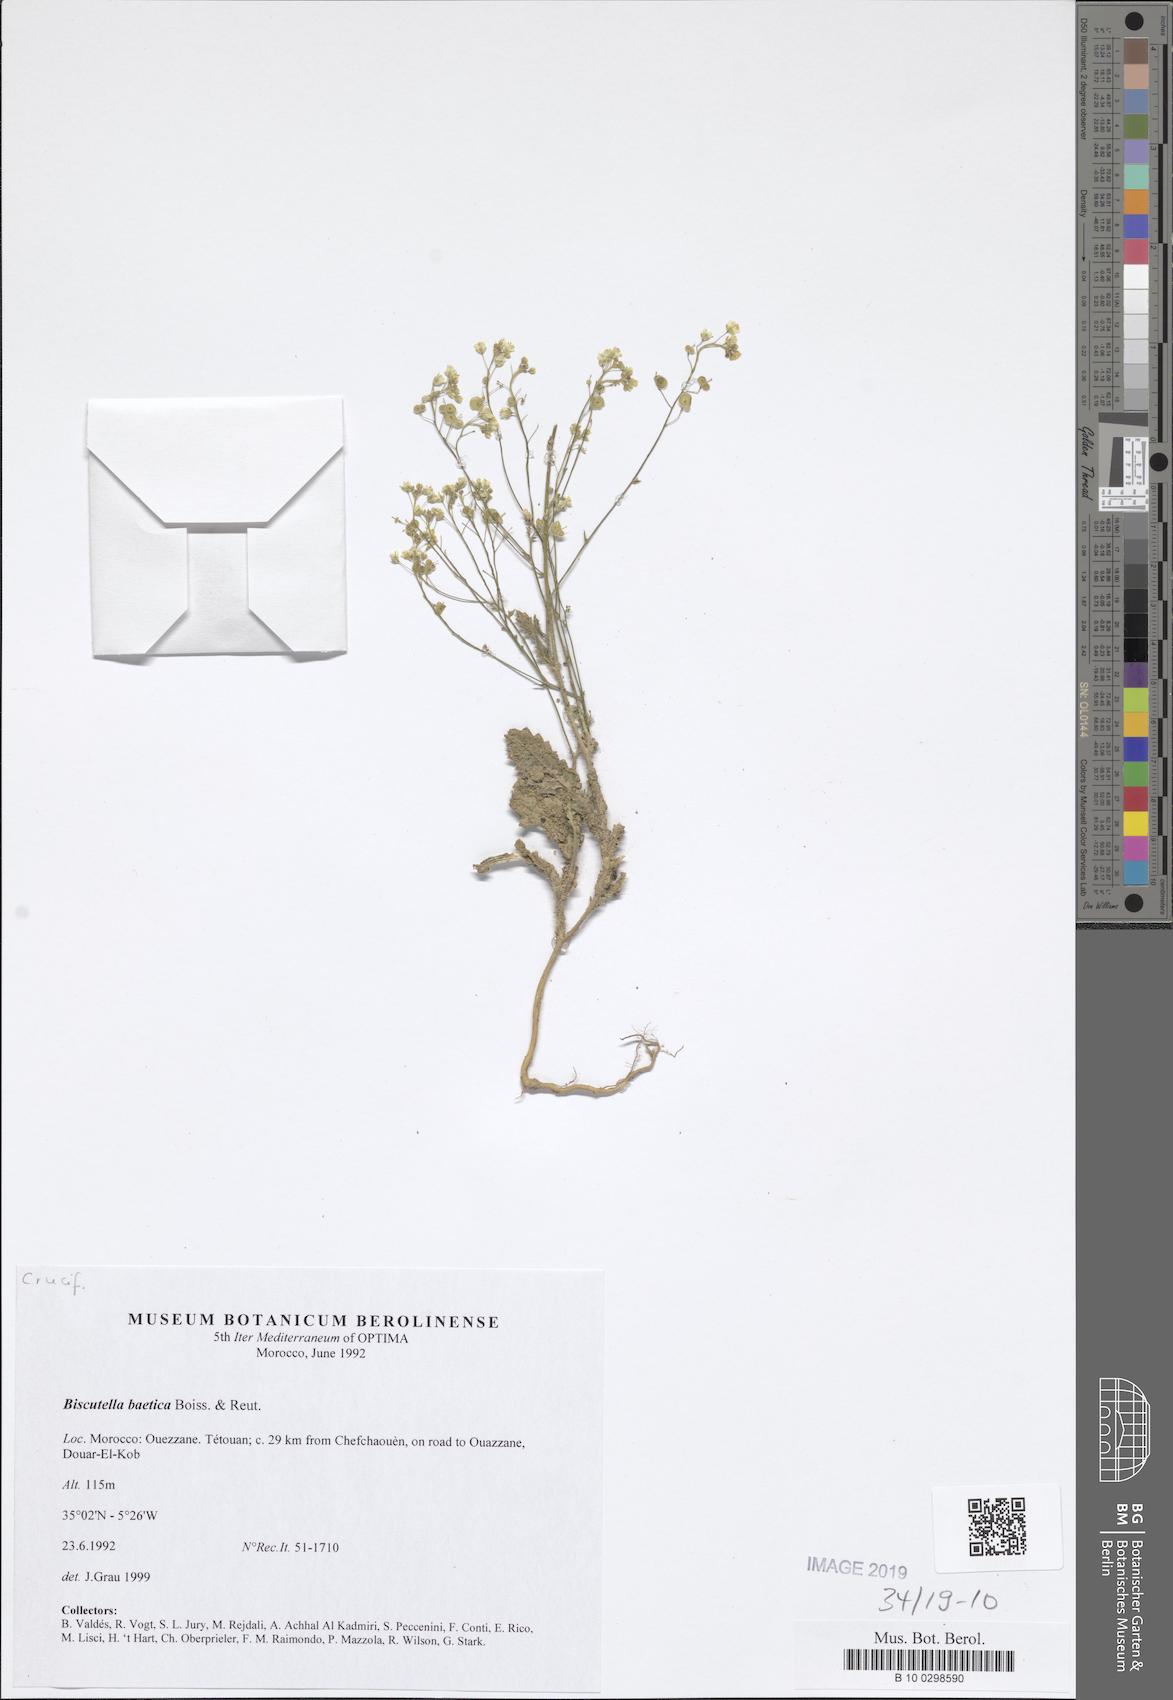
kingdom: Plantae
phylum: Tracheophyta
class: Magnoliopsida
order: Brassicales
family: Brassicaceae
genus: Biscutella
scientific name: Biscutella baetica
